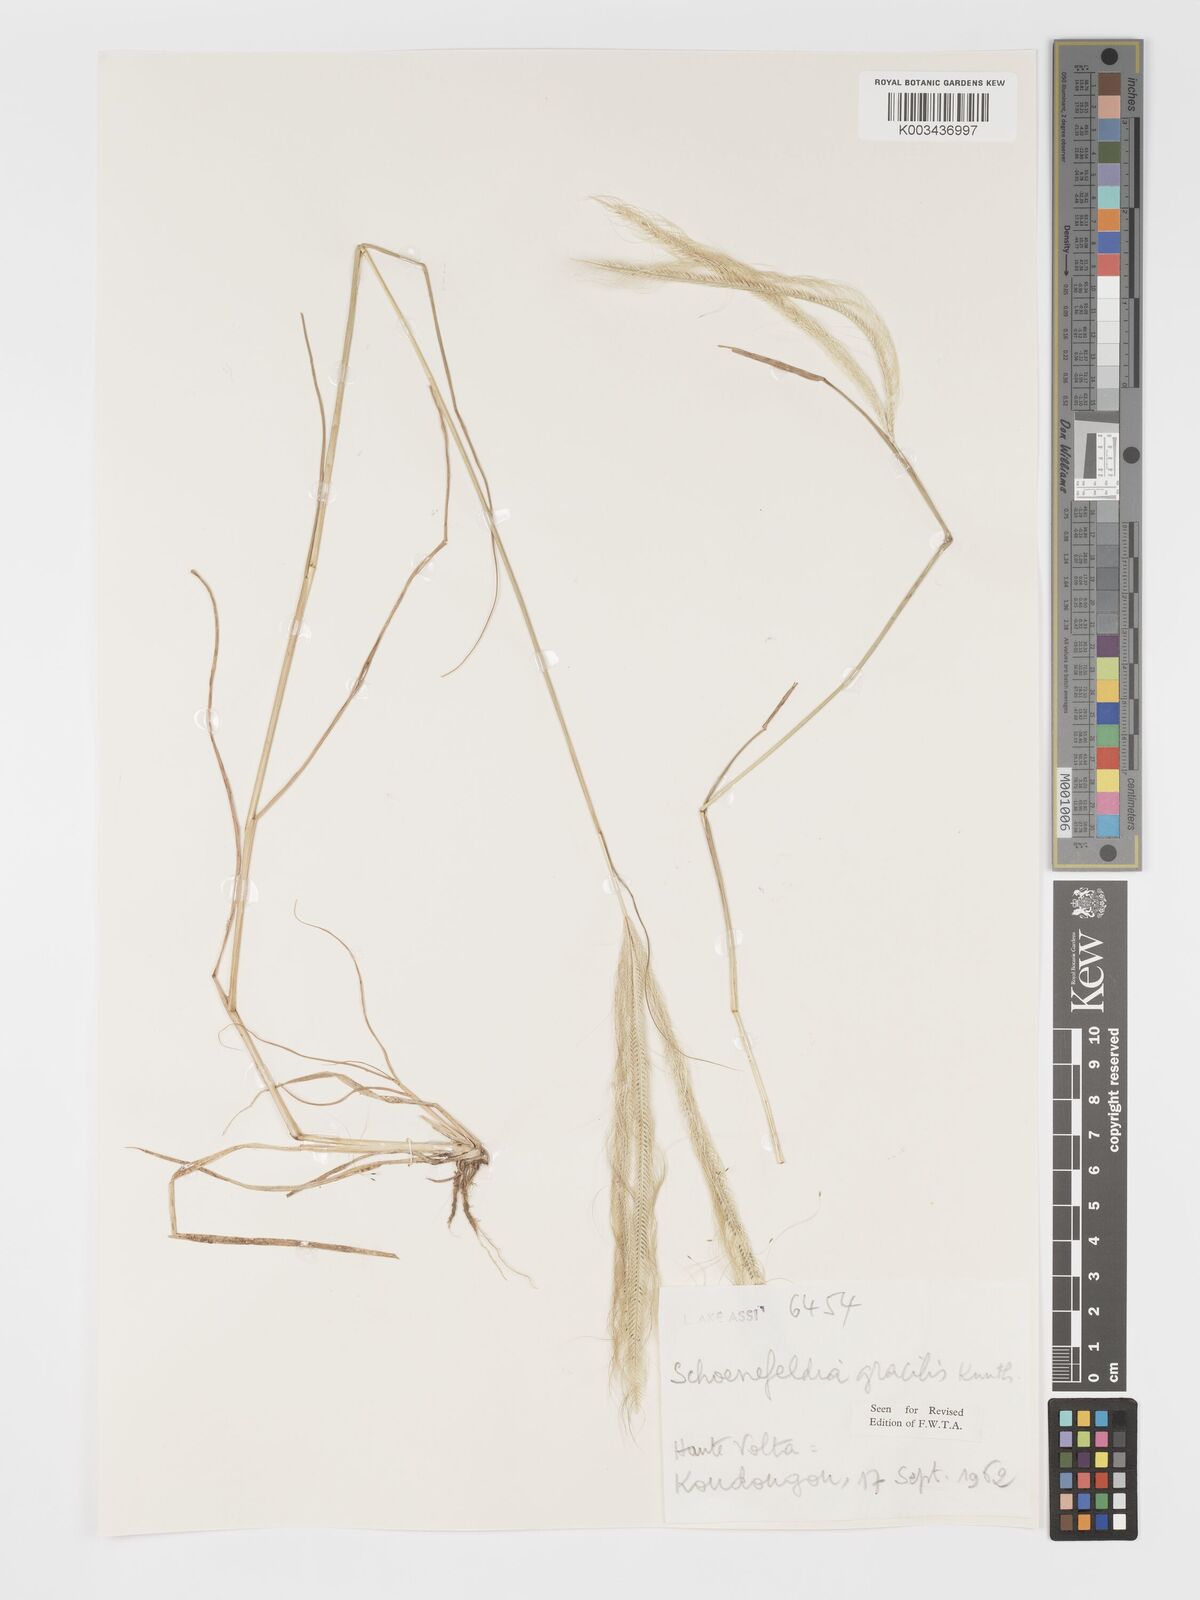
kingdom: Plantae
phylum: Tracheophyta
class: Liliopsida
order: Poales
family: Poaceae
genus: Schoenefeldia
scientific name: Schoenefeldia gracilis
